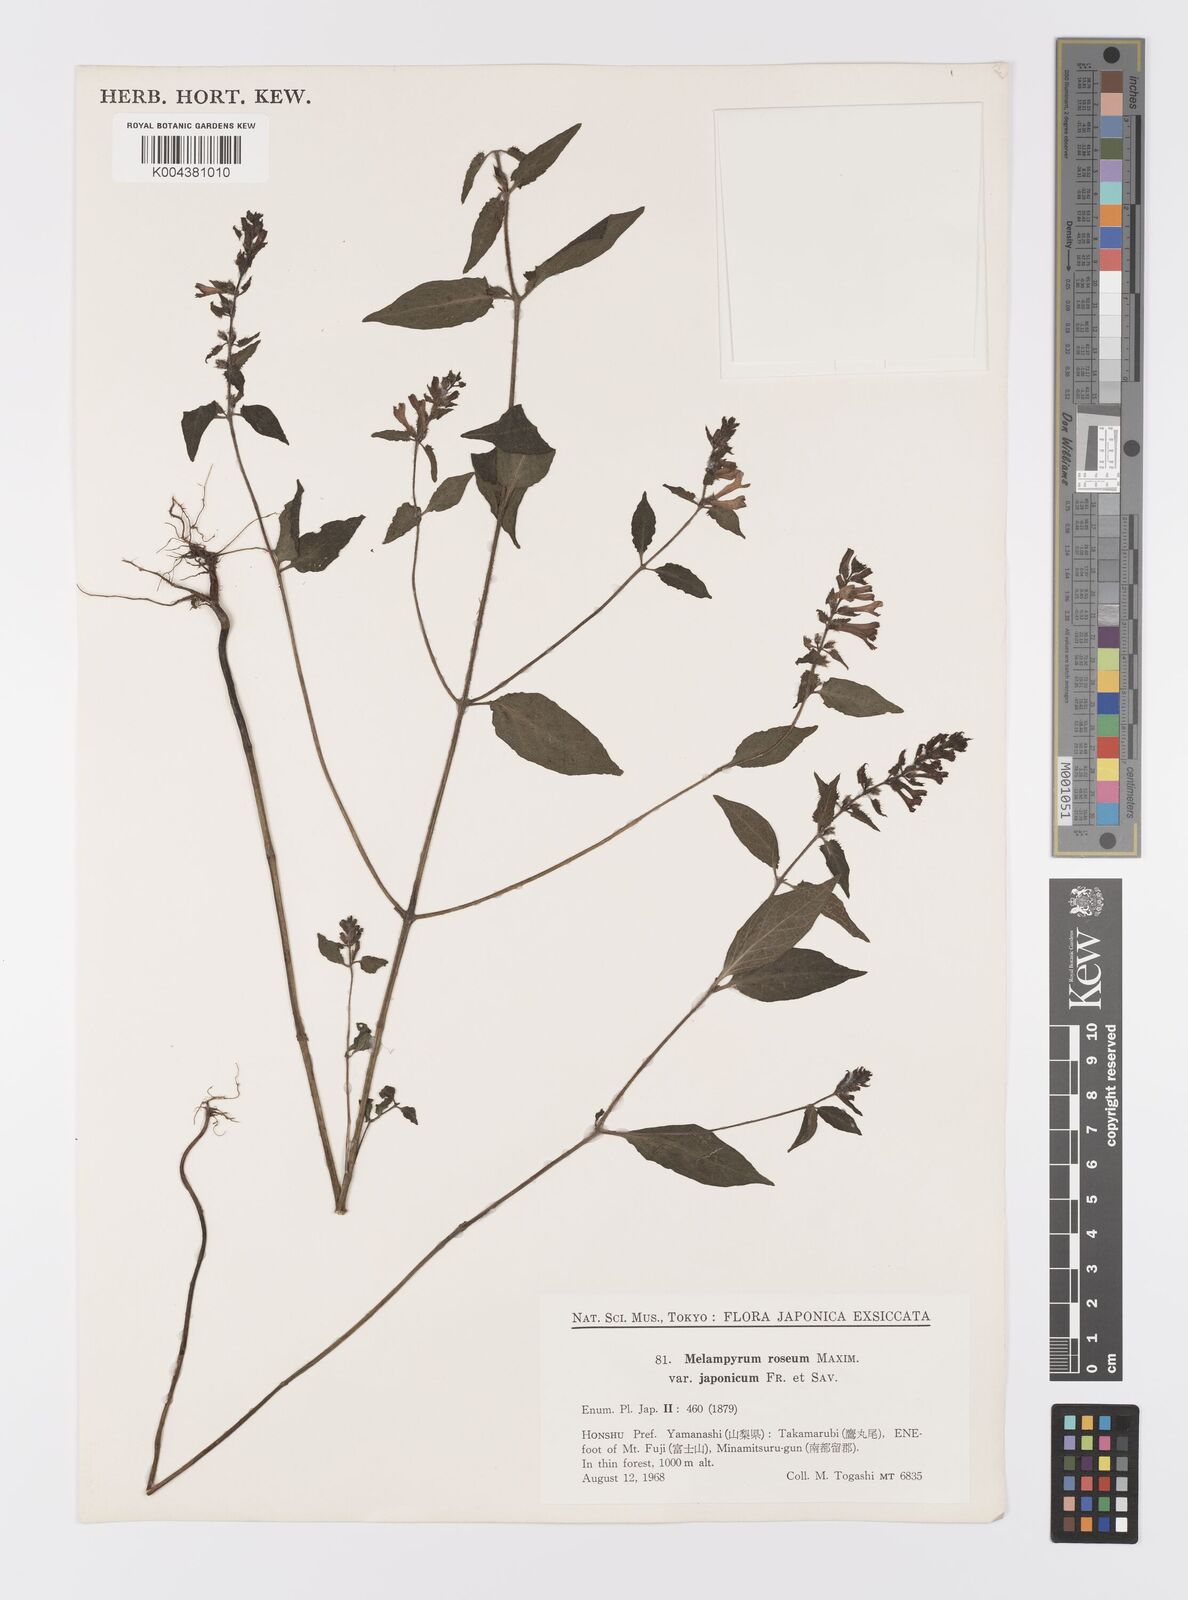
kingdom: Plantae
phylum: Tracheophyta
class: Magnoliopsida
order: Lamiales
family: Orobanchaceae
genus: Melampyrum
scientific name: Melampyrum roseum
